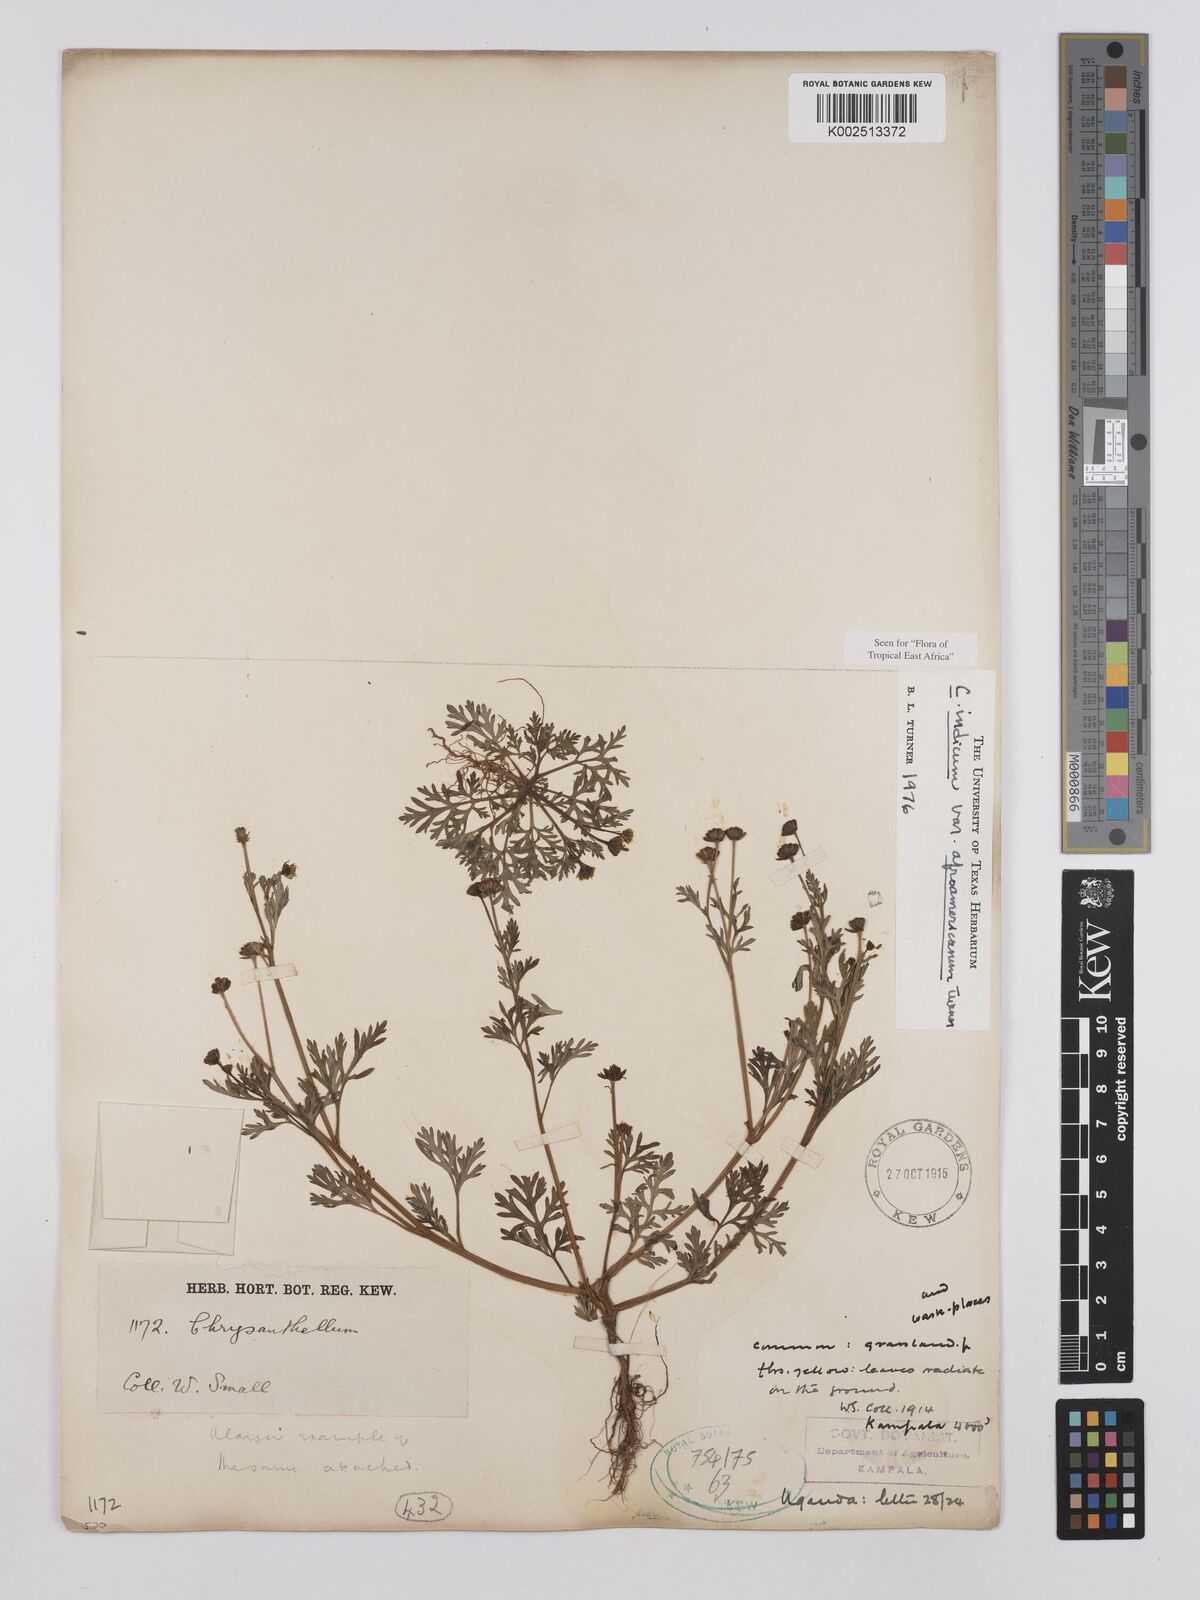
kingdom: Plantae
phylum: Tracheophyta
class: Magnoliopsida
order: Asterales
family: Asteraceae
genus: Chrysanthellum
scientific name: Chrysanthellum indicum
